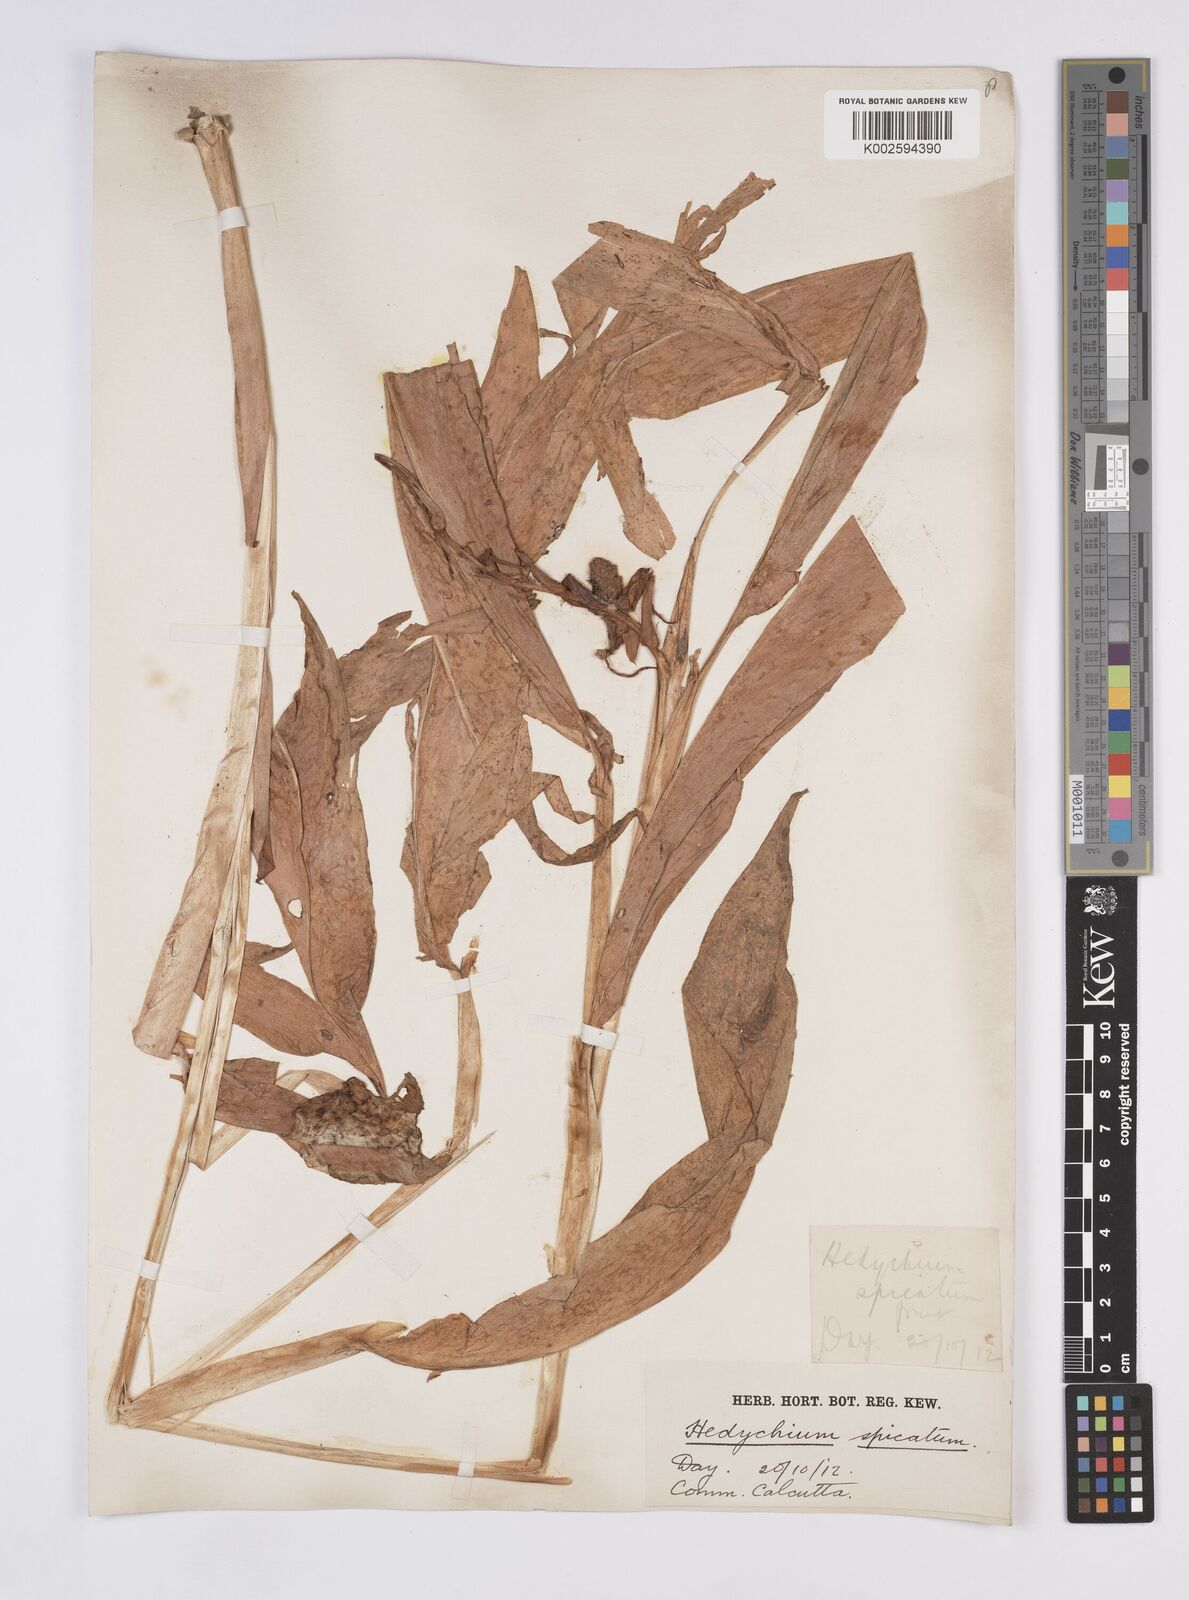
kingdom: Plantae
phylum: Tracheophyta
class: Liliopsida
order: Zingiberales
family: Zingiberaceae
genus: Hedychium
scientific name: Hedychium
